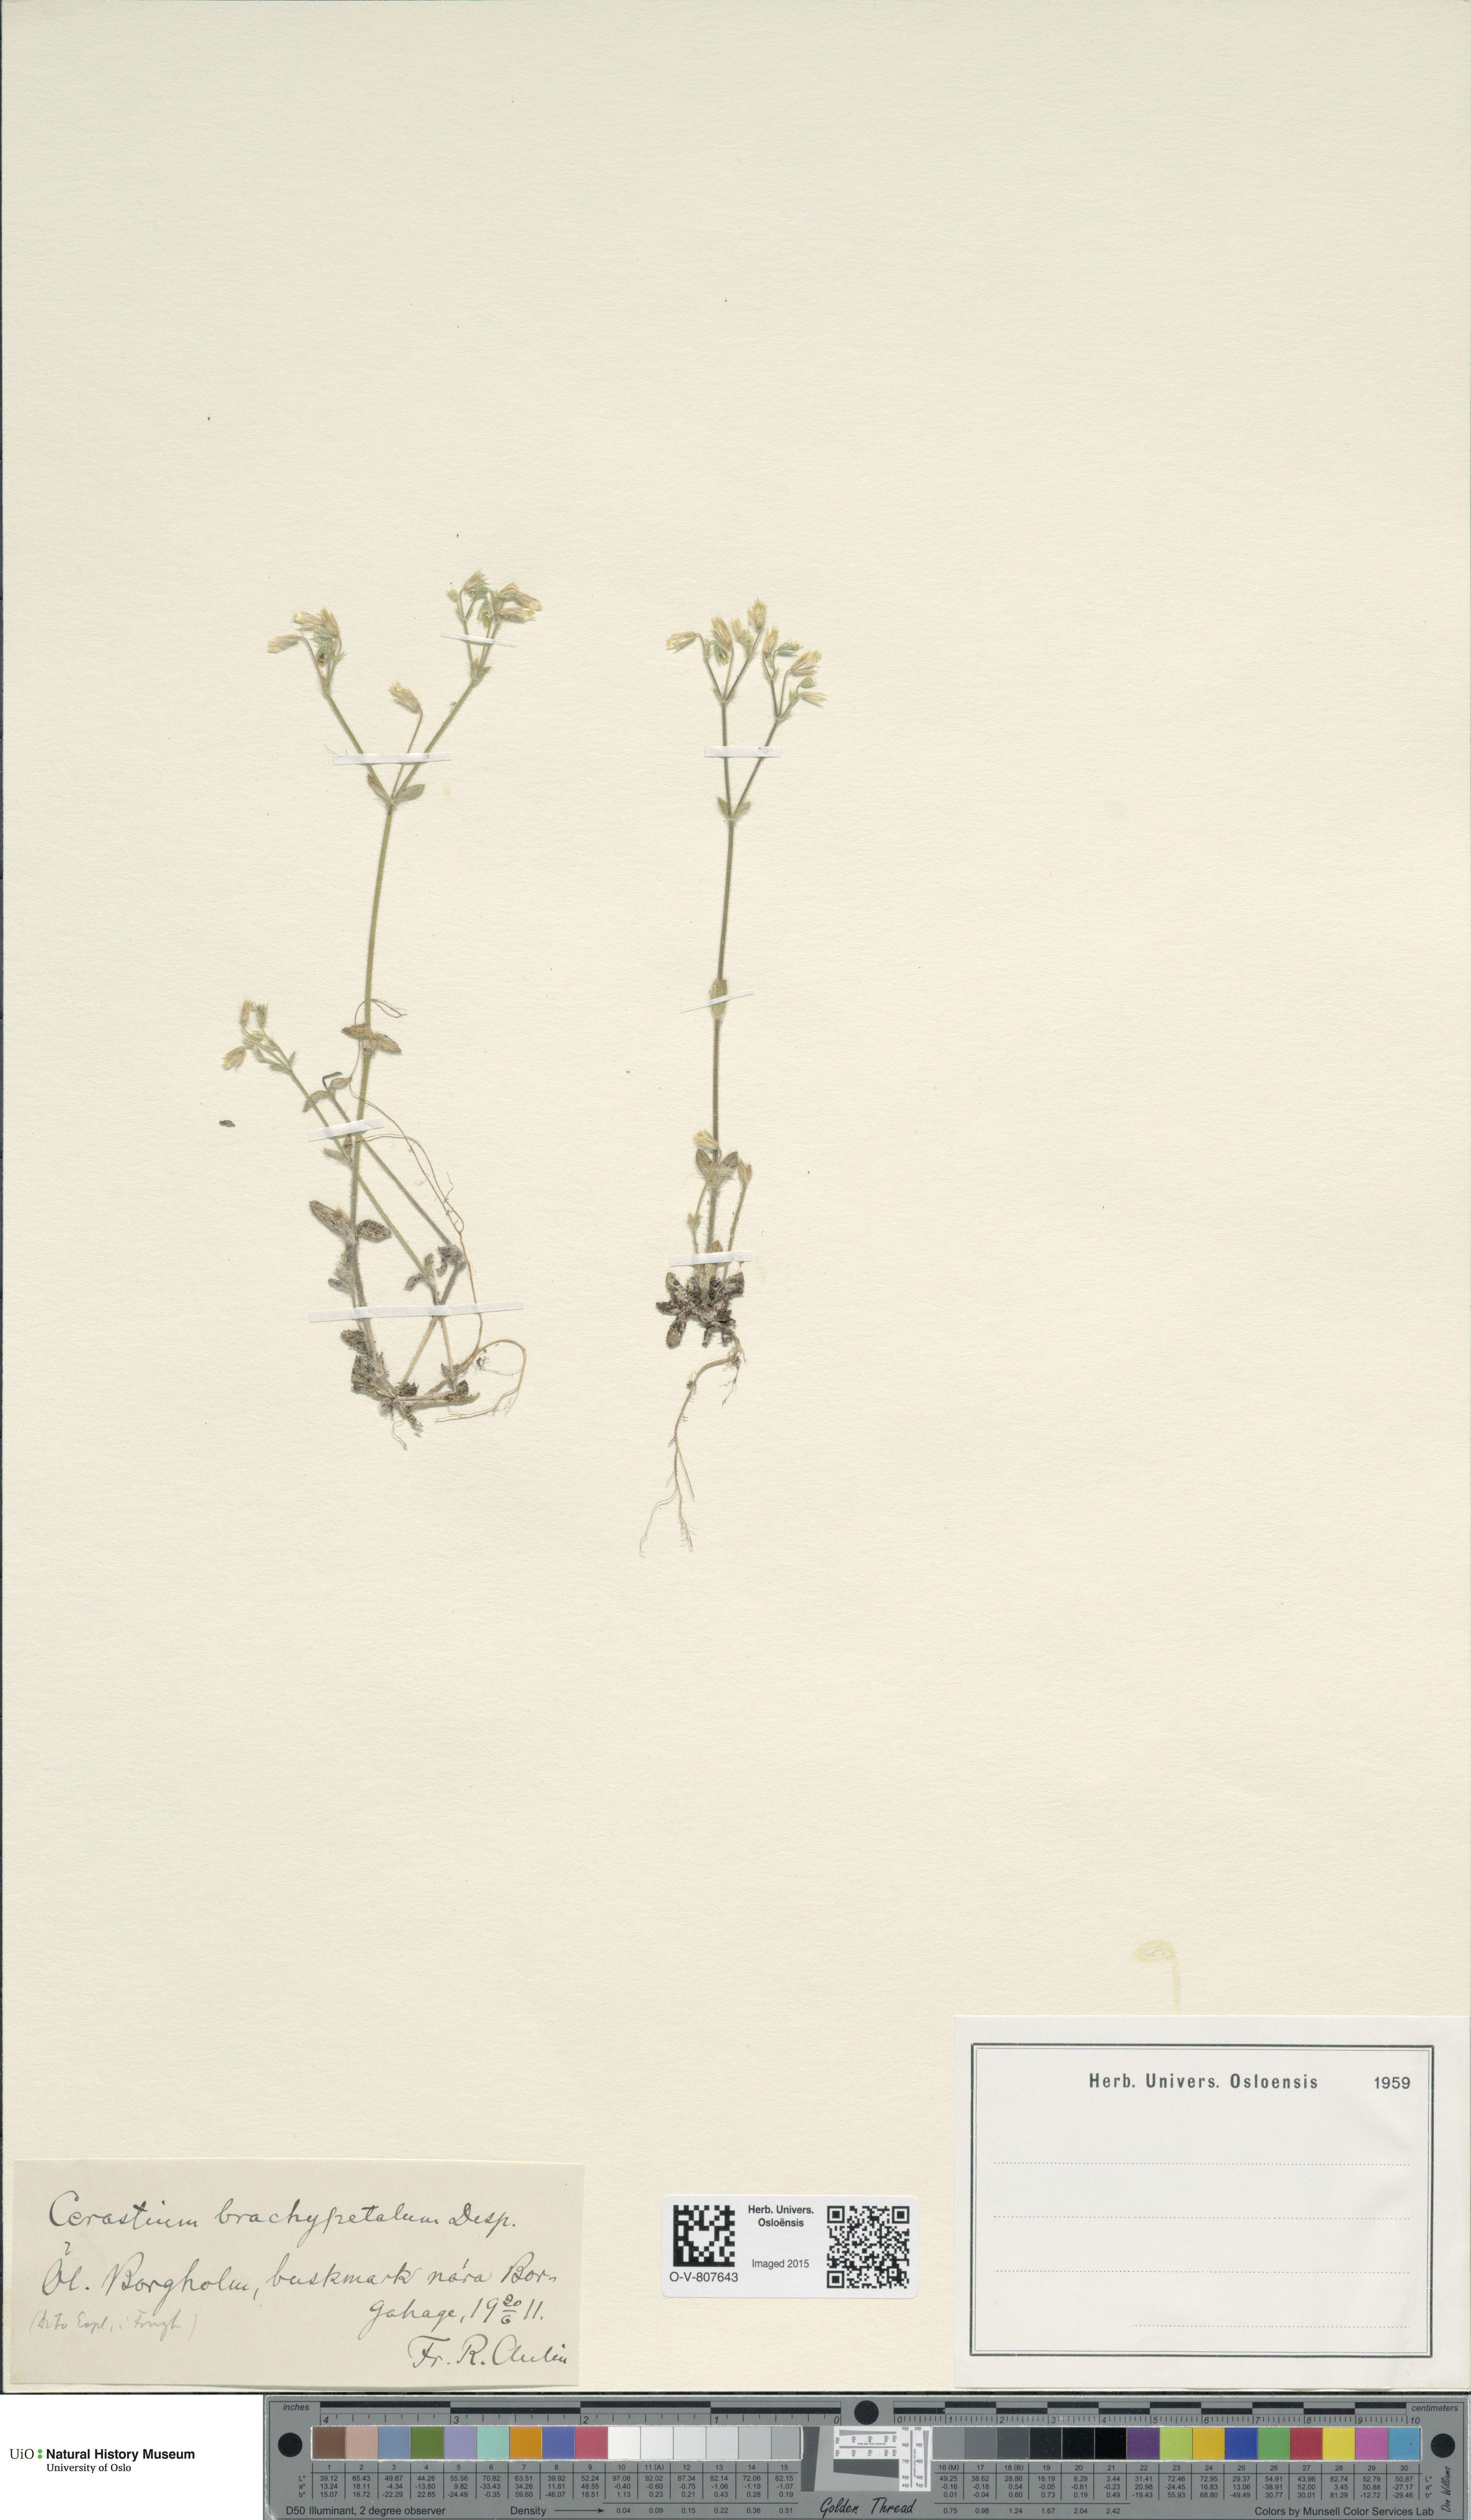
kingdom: Plantae
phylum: Tracheophyta
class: Magnoliopsida
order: Caryophyllales
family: Caryophyllaceae
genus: Cerastium
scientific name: Cerastium brachypetalum
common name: Grey mouse-ear
